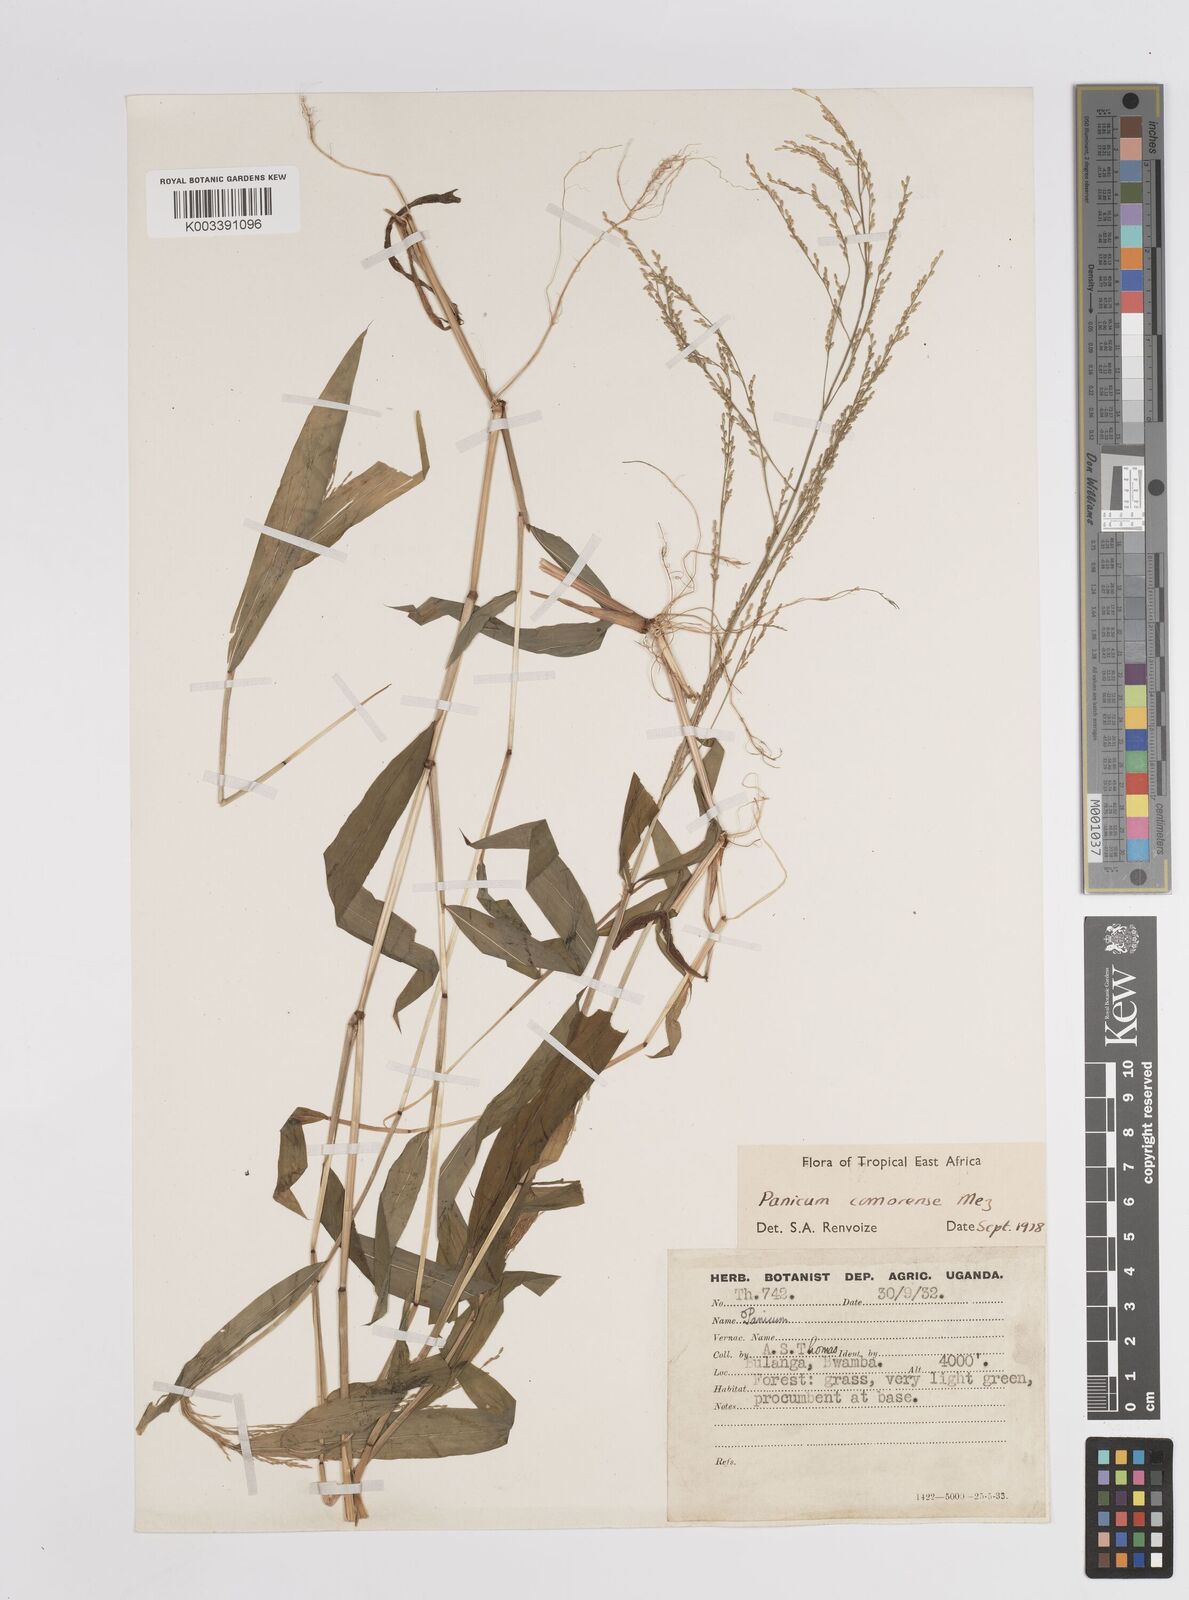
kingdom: Plantae
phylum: Tracheophyta
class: Liliopsida
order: Poales
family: Poaceae
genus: Panicum
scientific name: Panicum comorense
